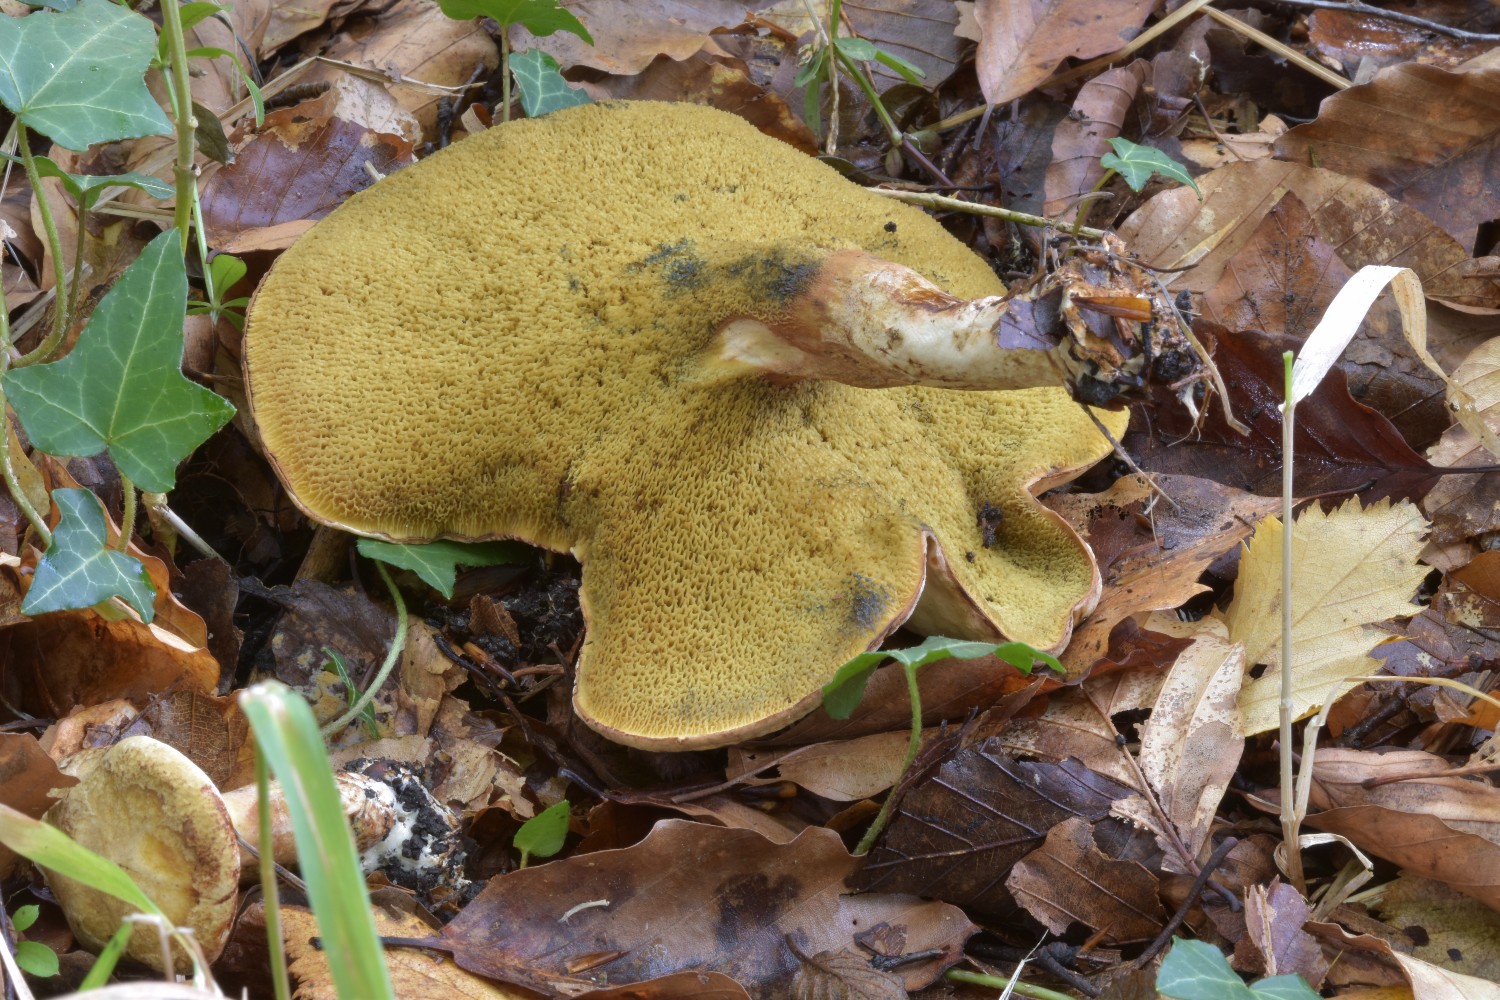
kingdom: Fungi
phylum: Basidiomycota
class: Agaricomycetes
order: Boletales
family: Paxillaceae
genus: Gyrodon
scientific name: Gyrodon lividus
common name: ellerørhat
